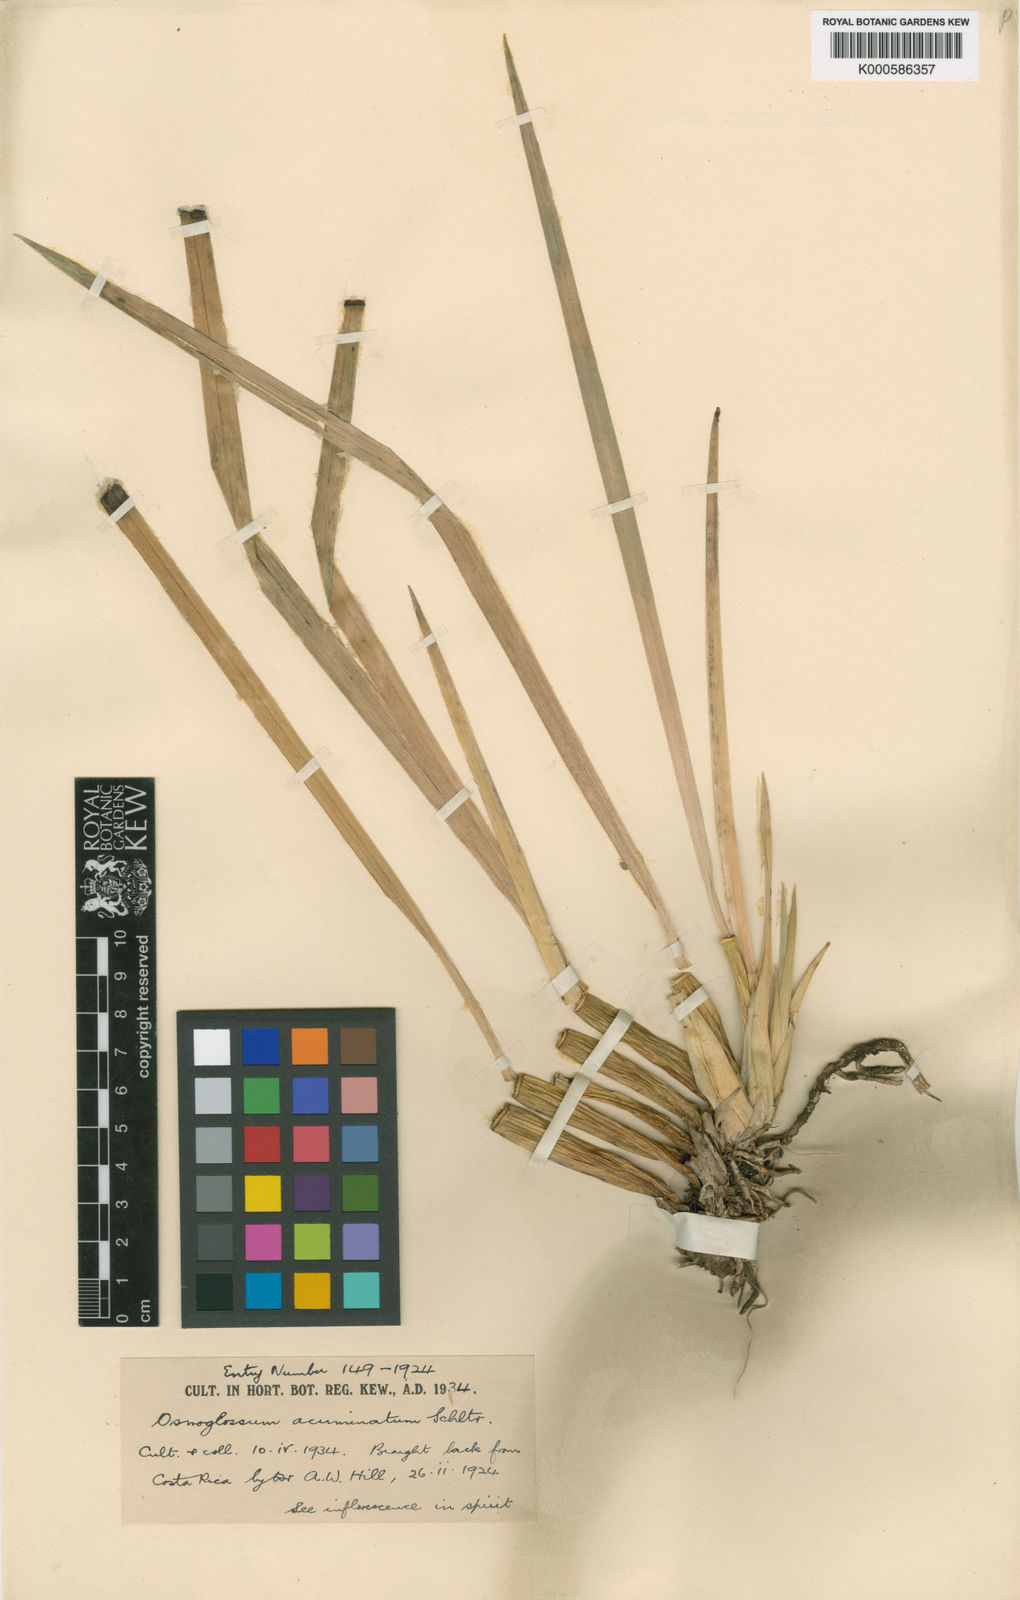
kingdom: Plantae
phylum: Tracheophyta
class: Liliopsida
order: Asparagales
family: Orchidaceae
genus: Cuitlauzina
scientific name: Cuitlauzina egertonii
